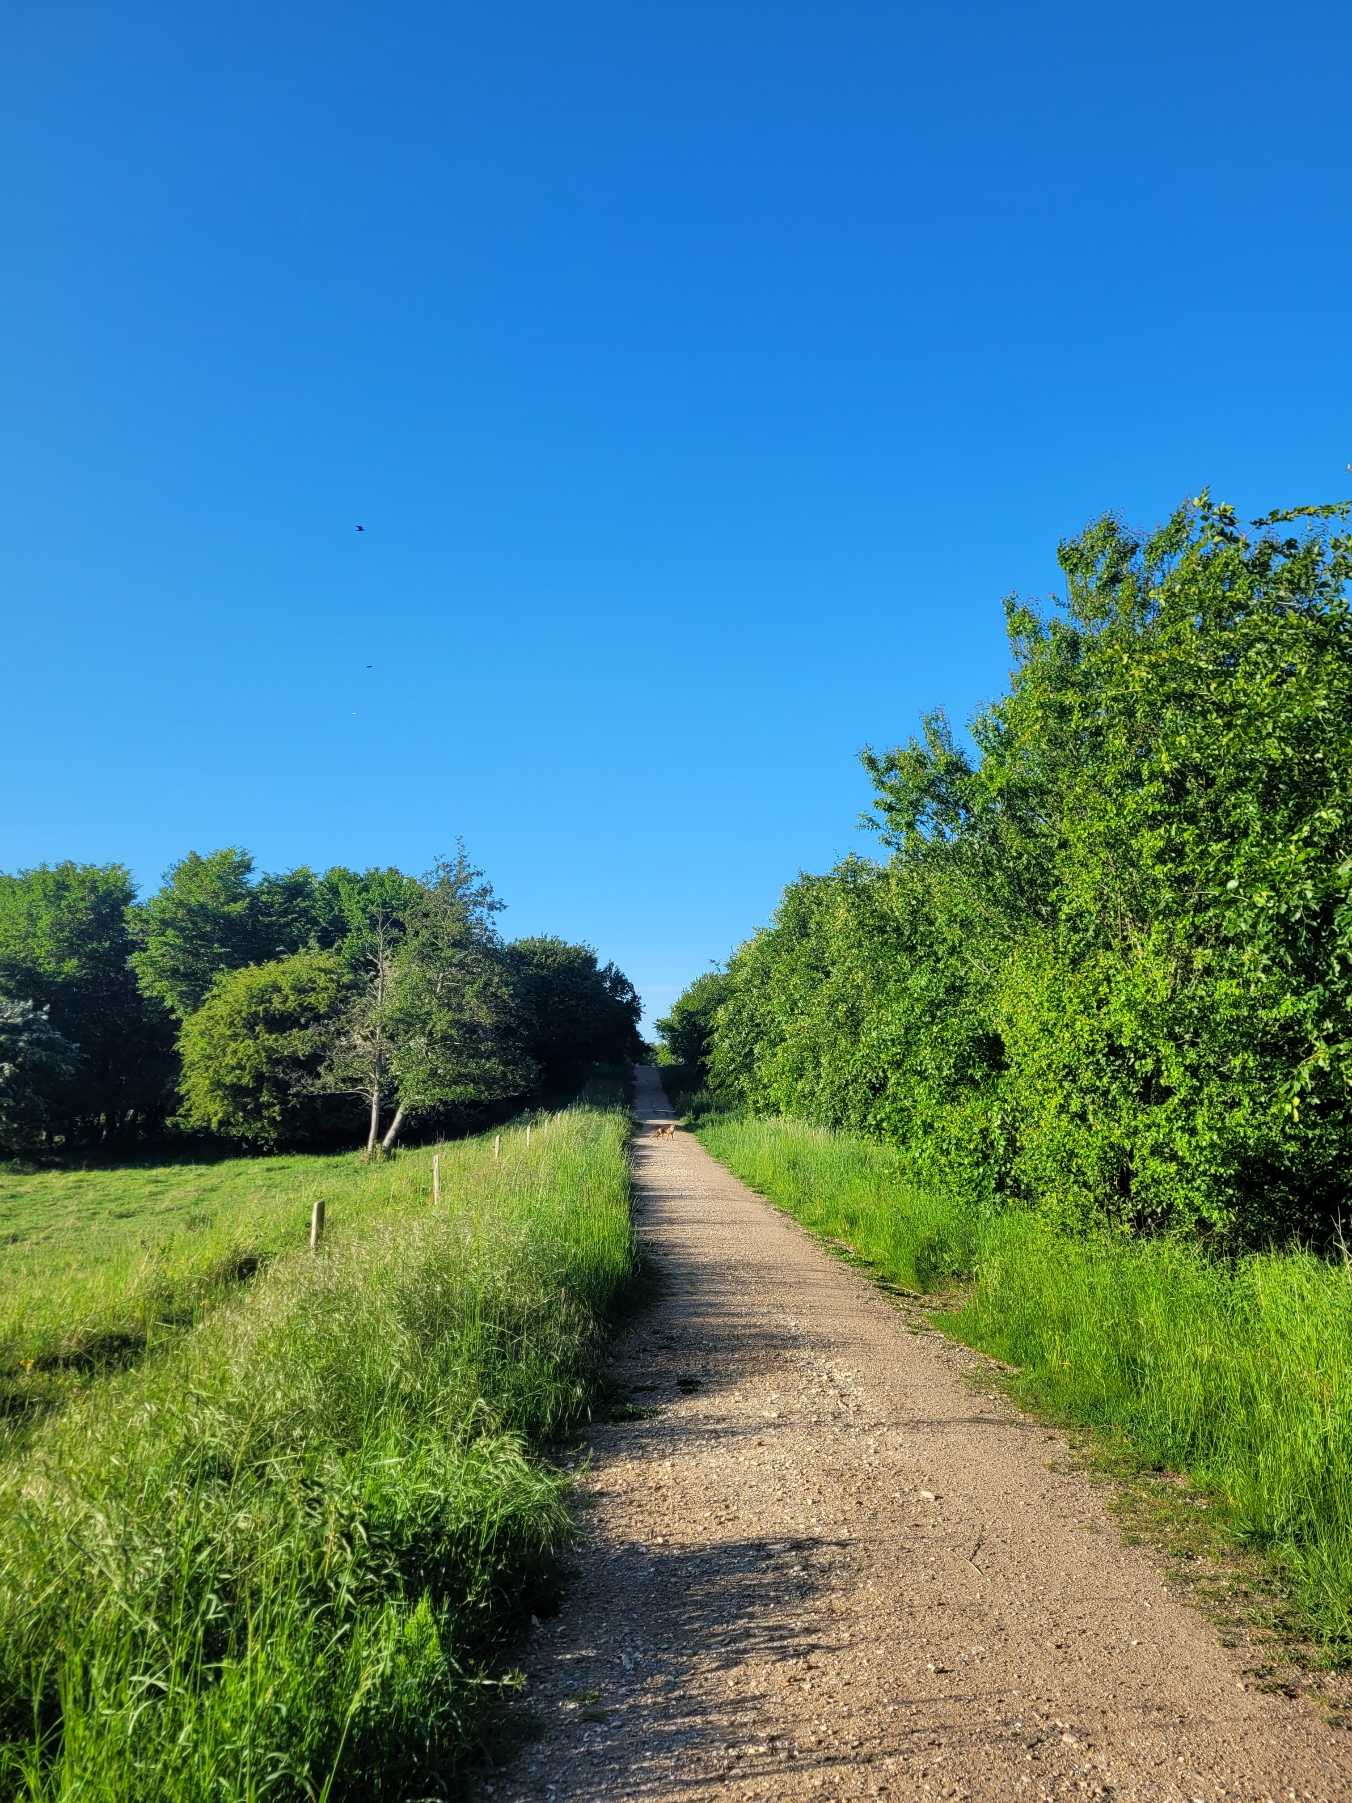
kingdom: Animalia
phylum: Chordata
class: Mammalia
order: Carnivora
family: Canidae
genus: Vulpes
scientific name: Vulpes vulpes
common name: Ræv
